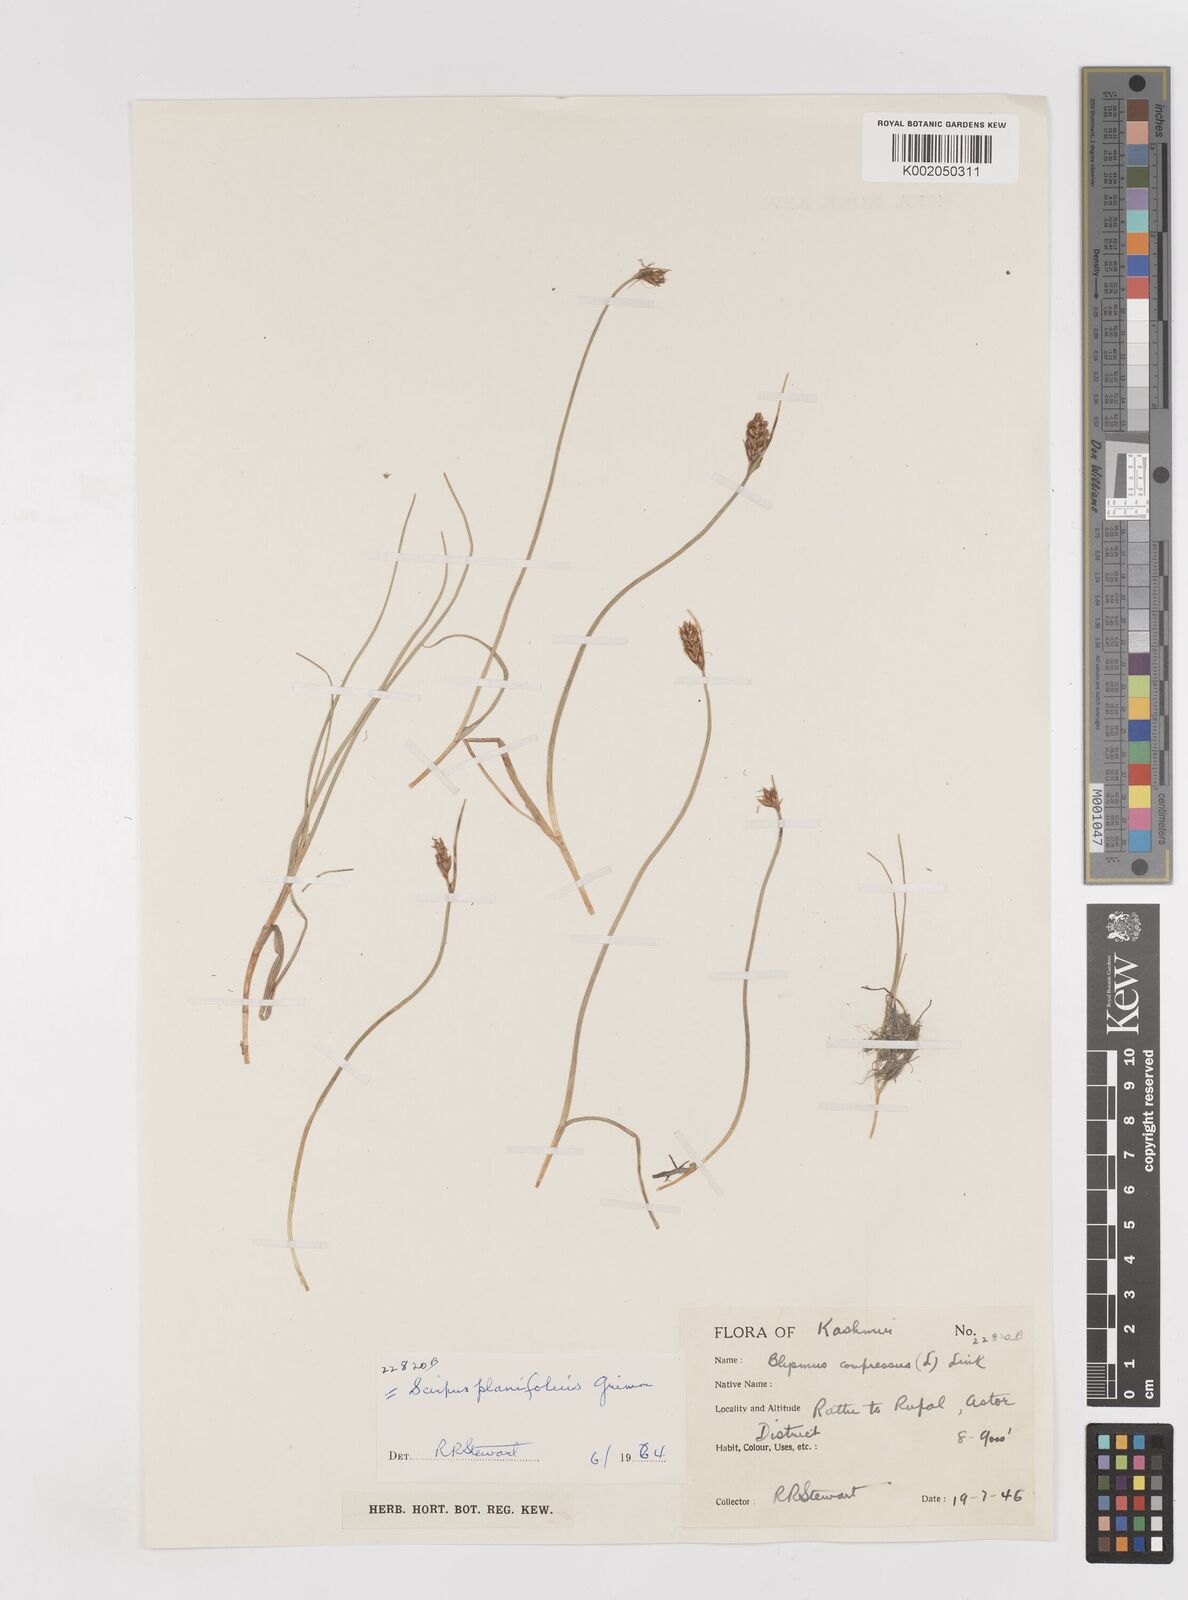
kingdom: Plantae
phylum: Tracheophyta
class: Liliopsida
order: Poales
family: Cyperaceae
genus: Blysmus
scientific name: Blysmus compressus
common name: Flat-sedge
